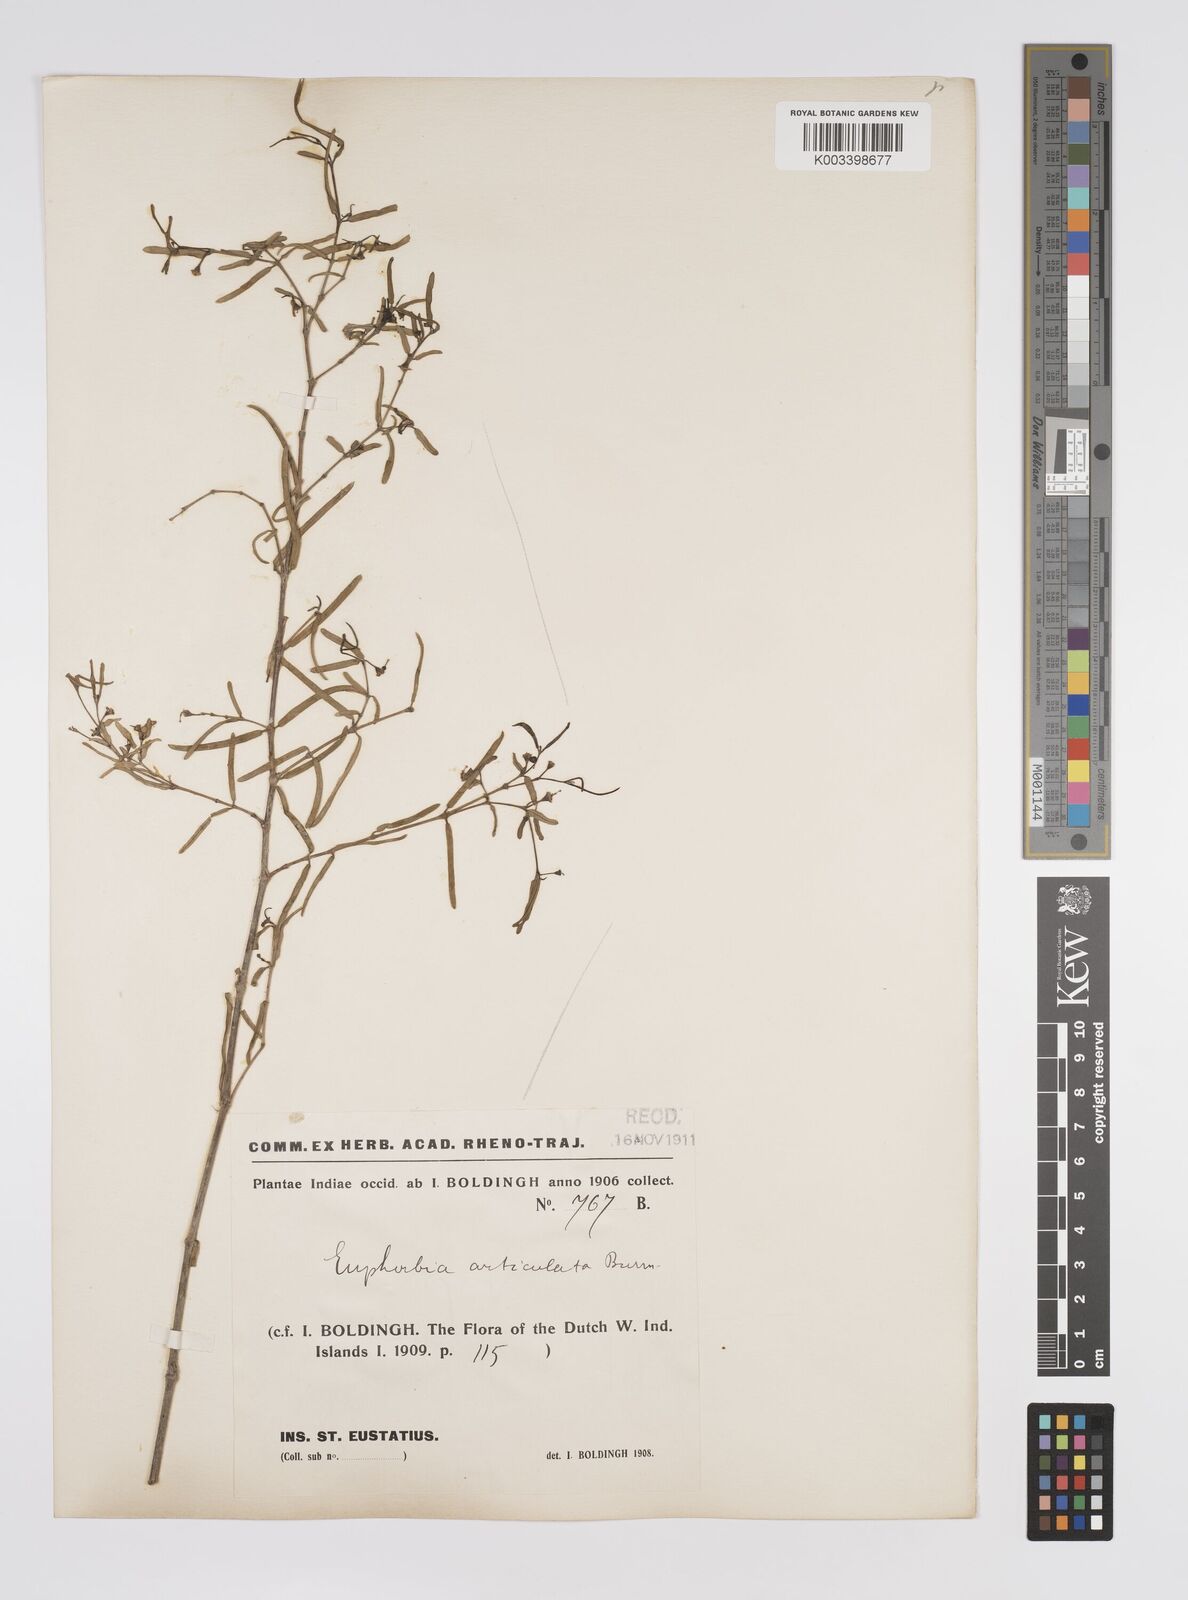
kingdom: Plantae
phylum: Tracheophyta
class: Magnoliopsida
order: Malpighiales
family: Euphorbiaceae
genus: Euphorbia
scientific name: Euphorbia articulata
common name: Jointed sandmat
